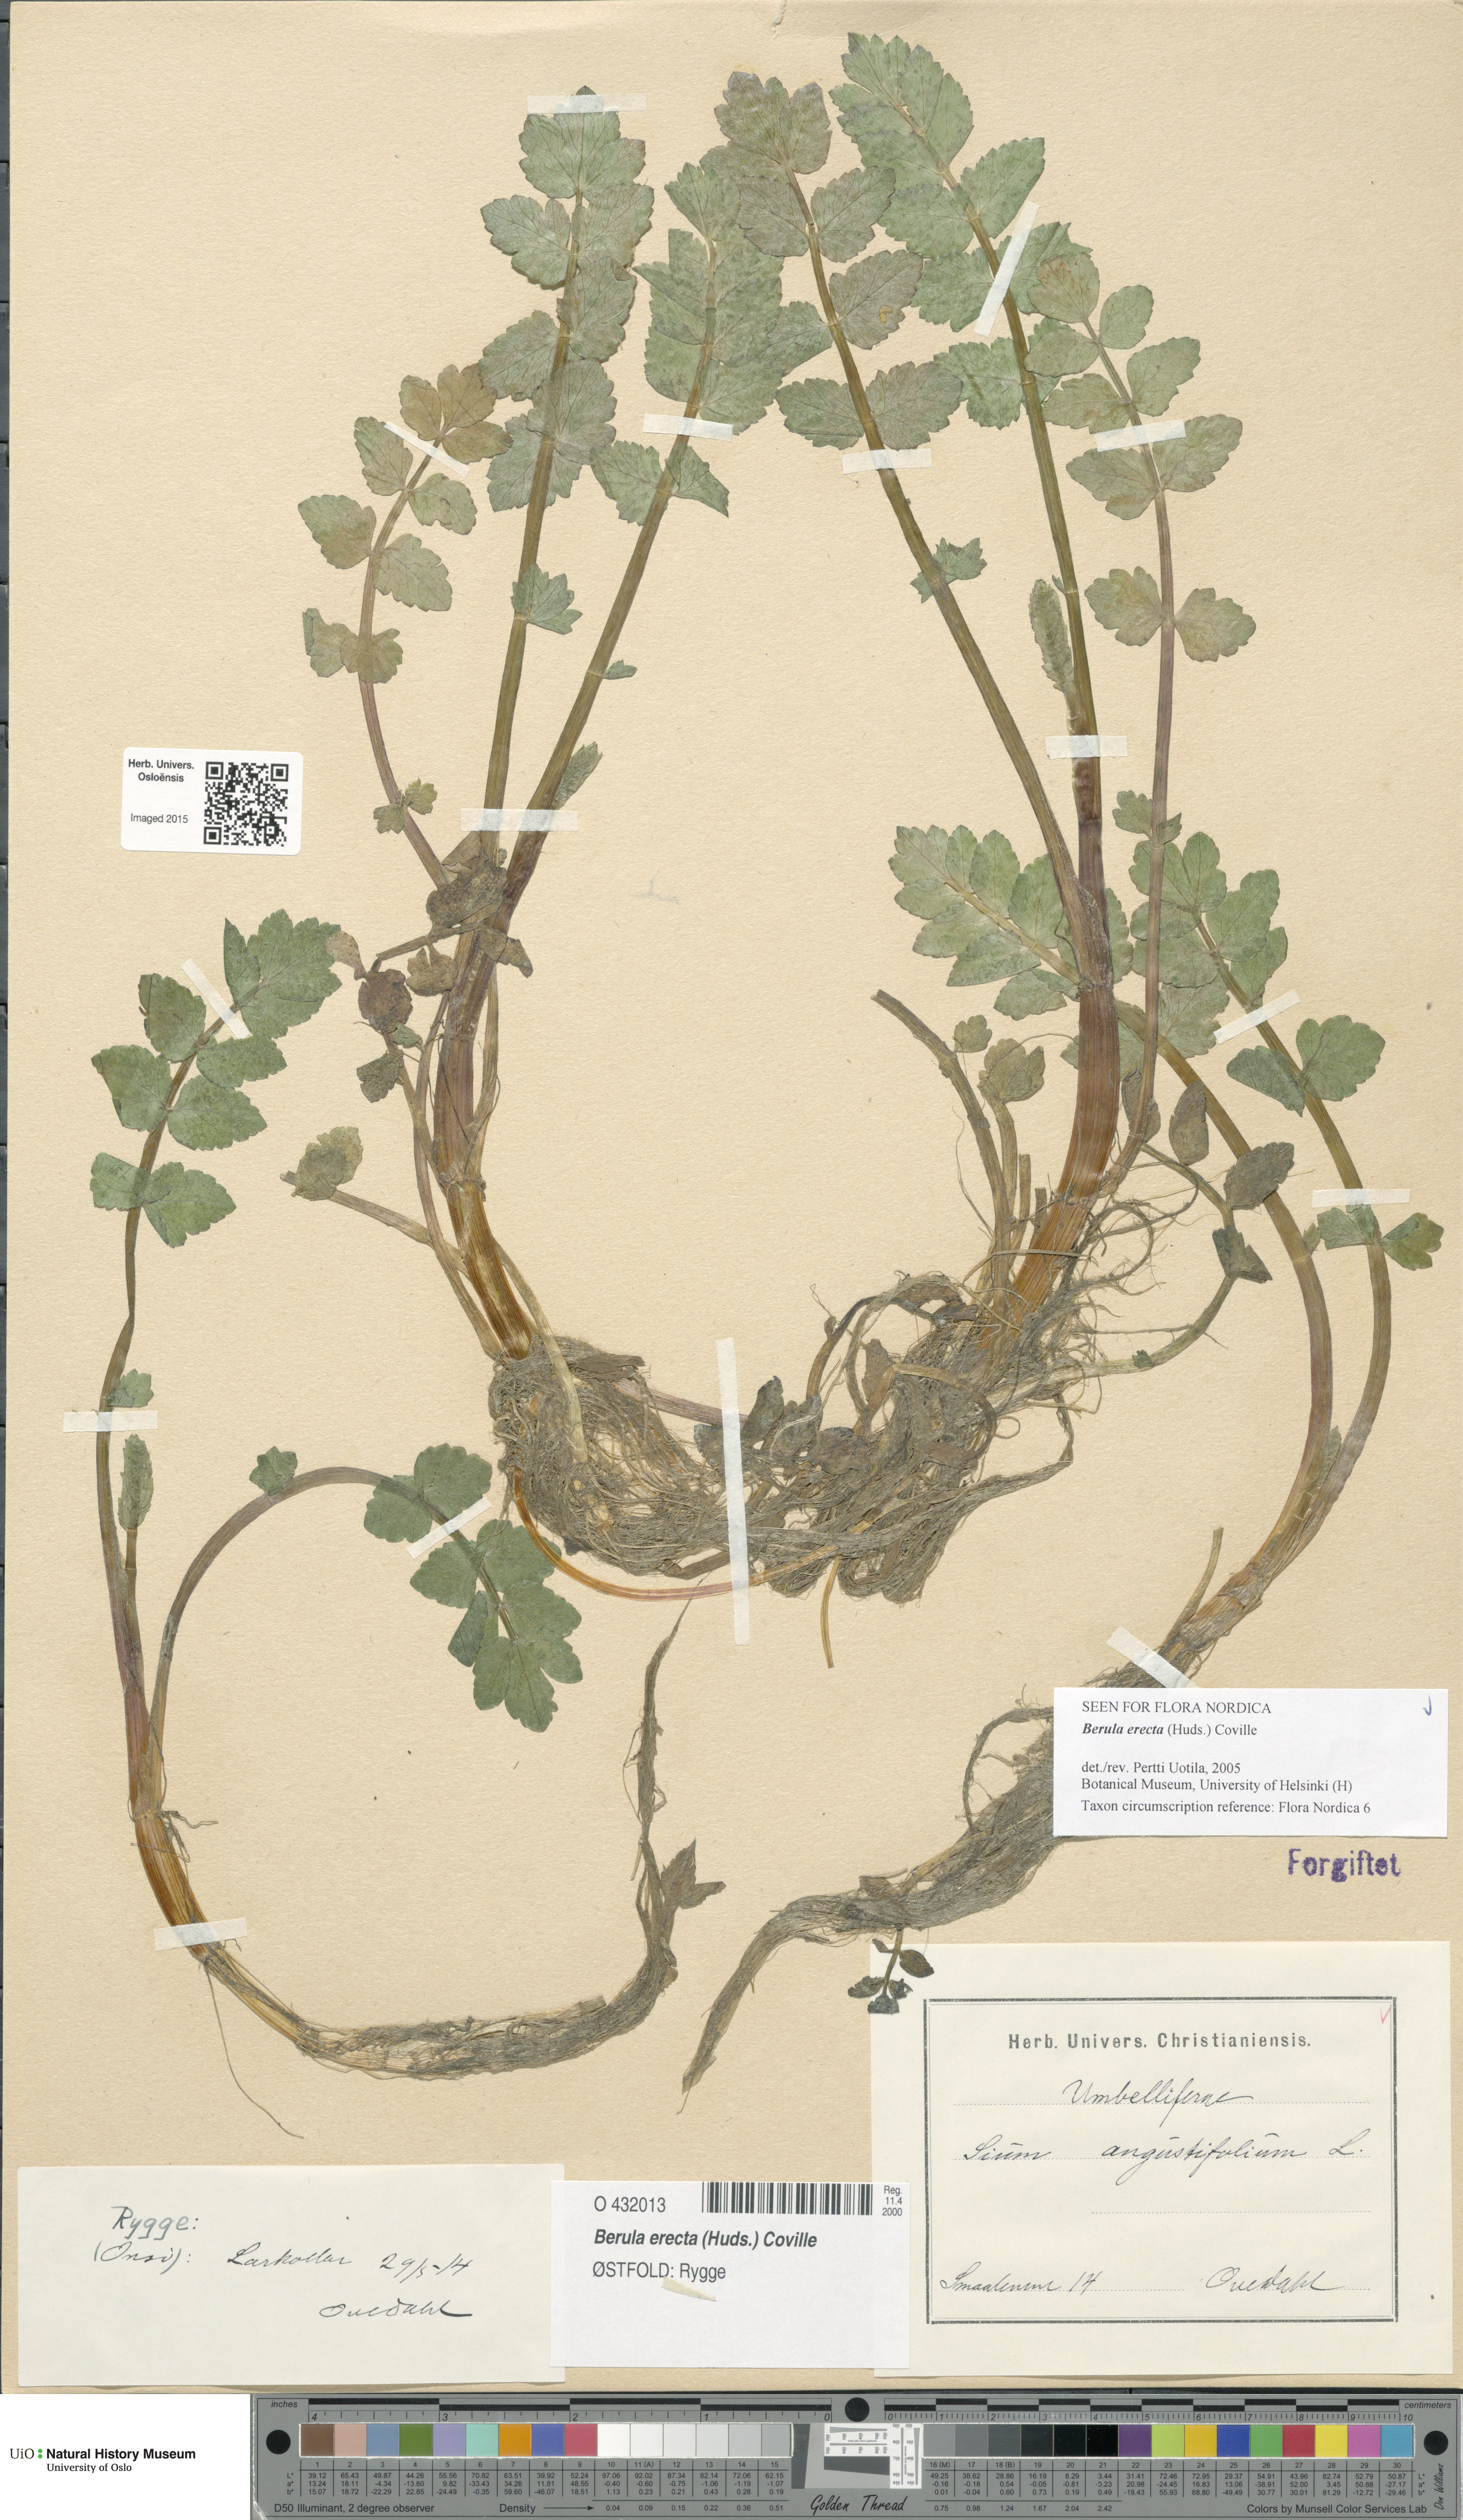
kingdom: Plantae
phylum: Tracheophyta
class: Magnoliopsida
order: Apiales
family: Apiaceae
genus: Berula
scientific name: Berula erecta
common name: Lesser water-parsnip
